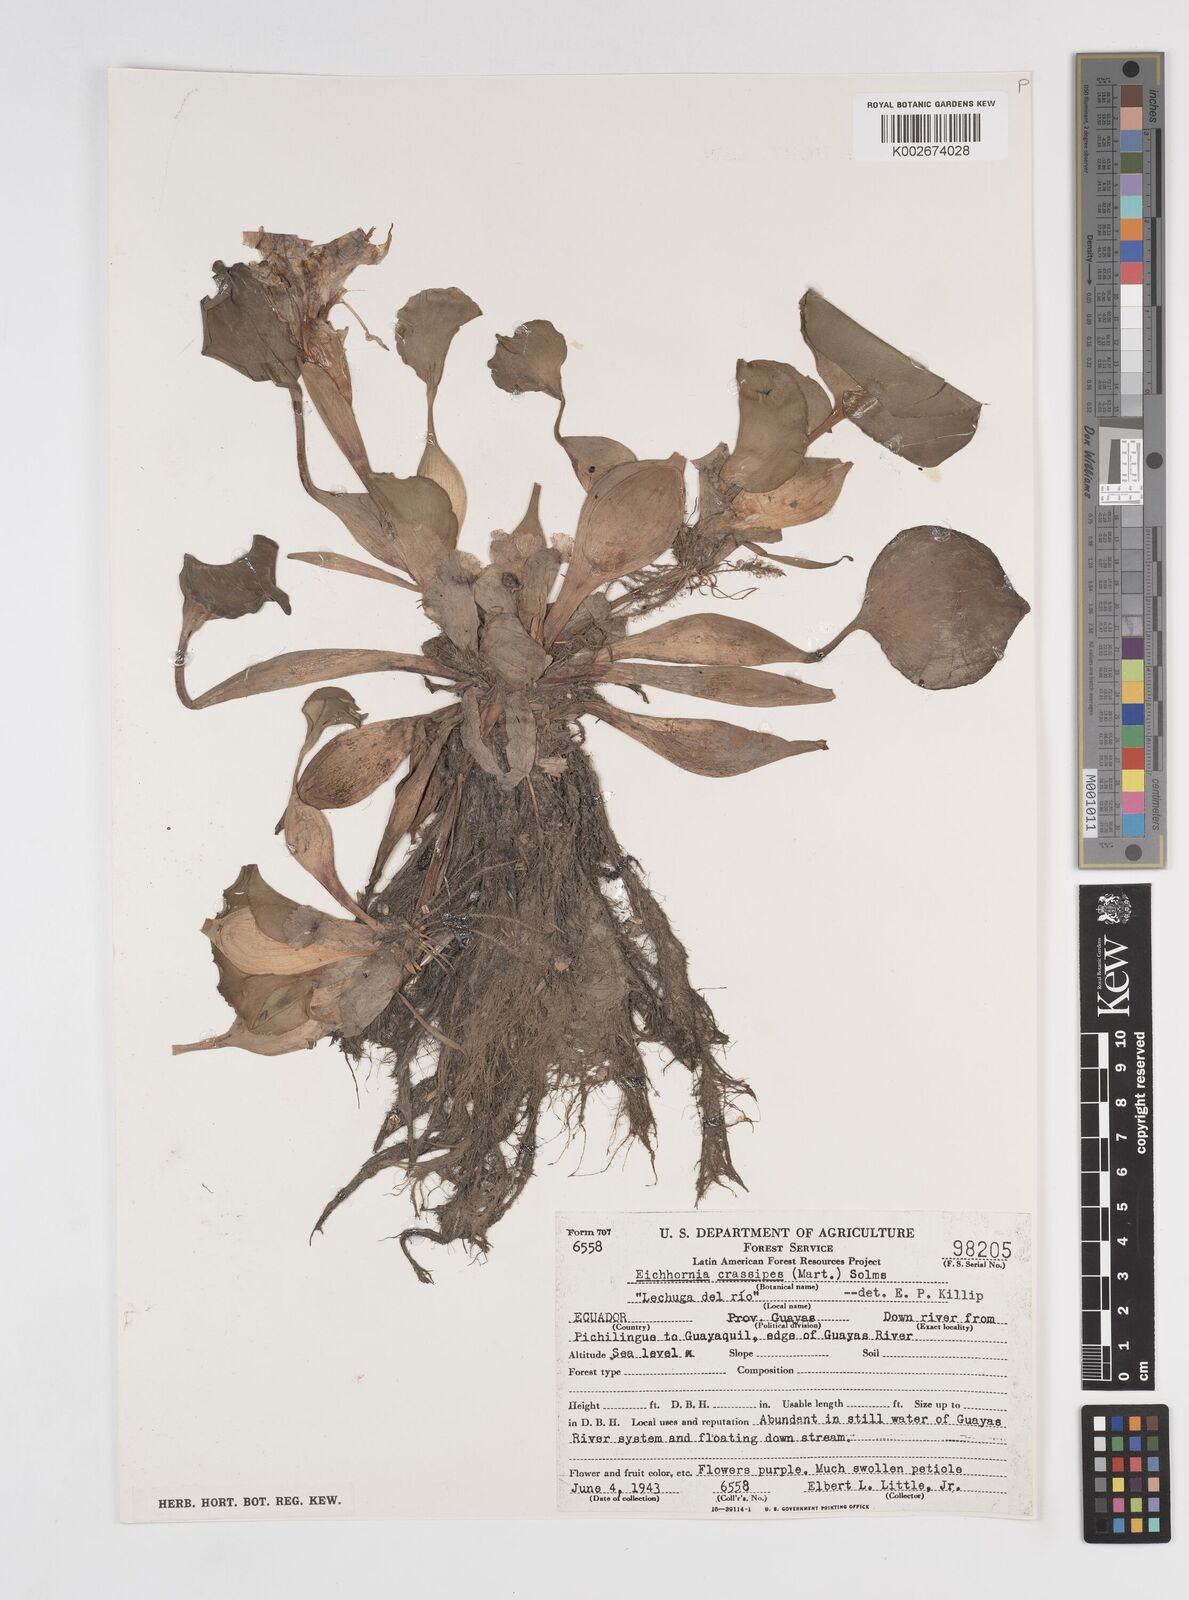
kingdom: Plantae
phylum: Tracheophyta
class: Liliopsida
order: Commelinales
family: Pontederiaceae
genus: Pontederia
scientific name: Pontederia crassipes
